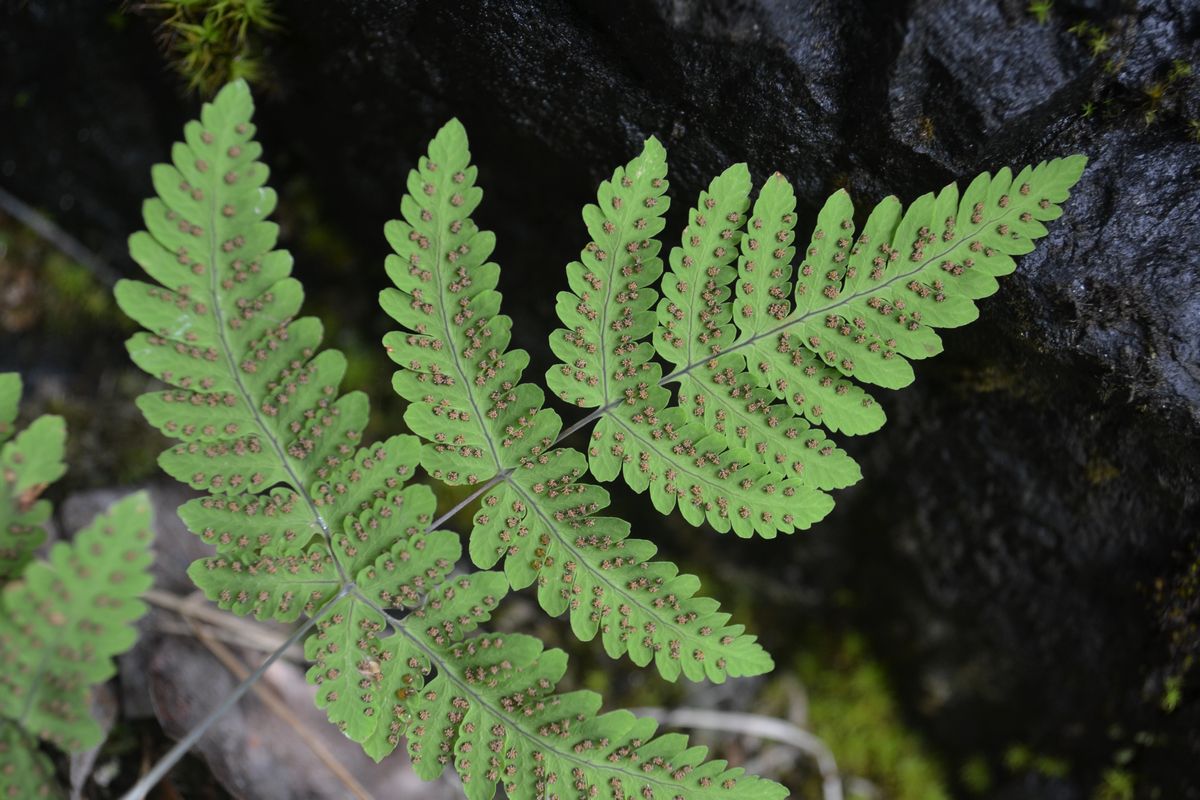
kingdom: Plantae
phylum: Tracheophyta
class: Polypodiopsida
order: Polypodiales
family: Cystopteridaceae
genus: Gymnocarpium
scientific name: Gymnocarpium dryopteris
